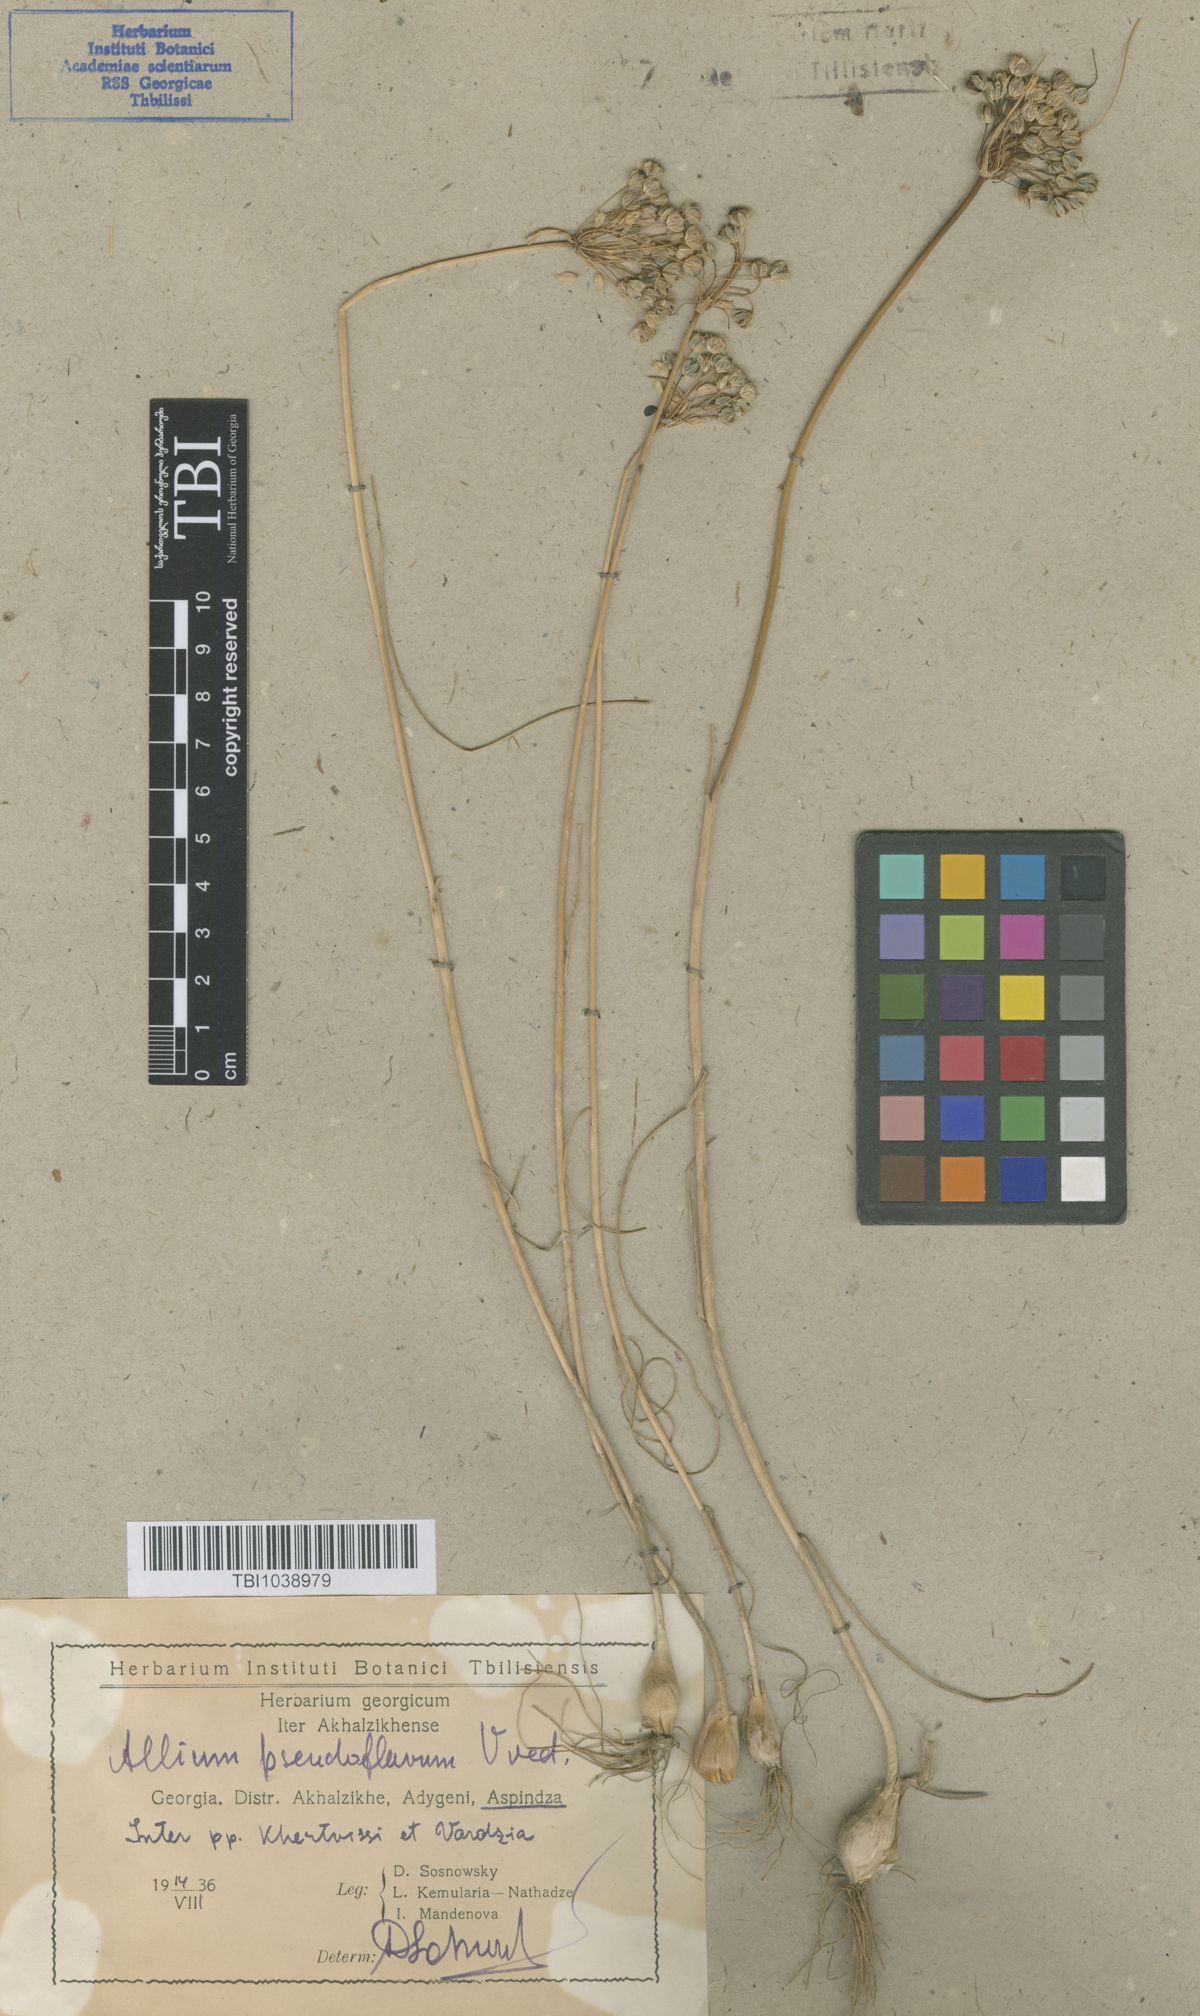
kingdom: Plantae
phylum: Tracheophyta
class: Liliopsida
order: Asparagales
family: Amaryllidaceae
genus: Allium
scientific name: Allium pseudoflavum
